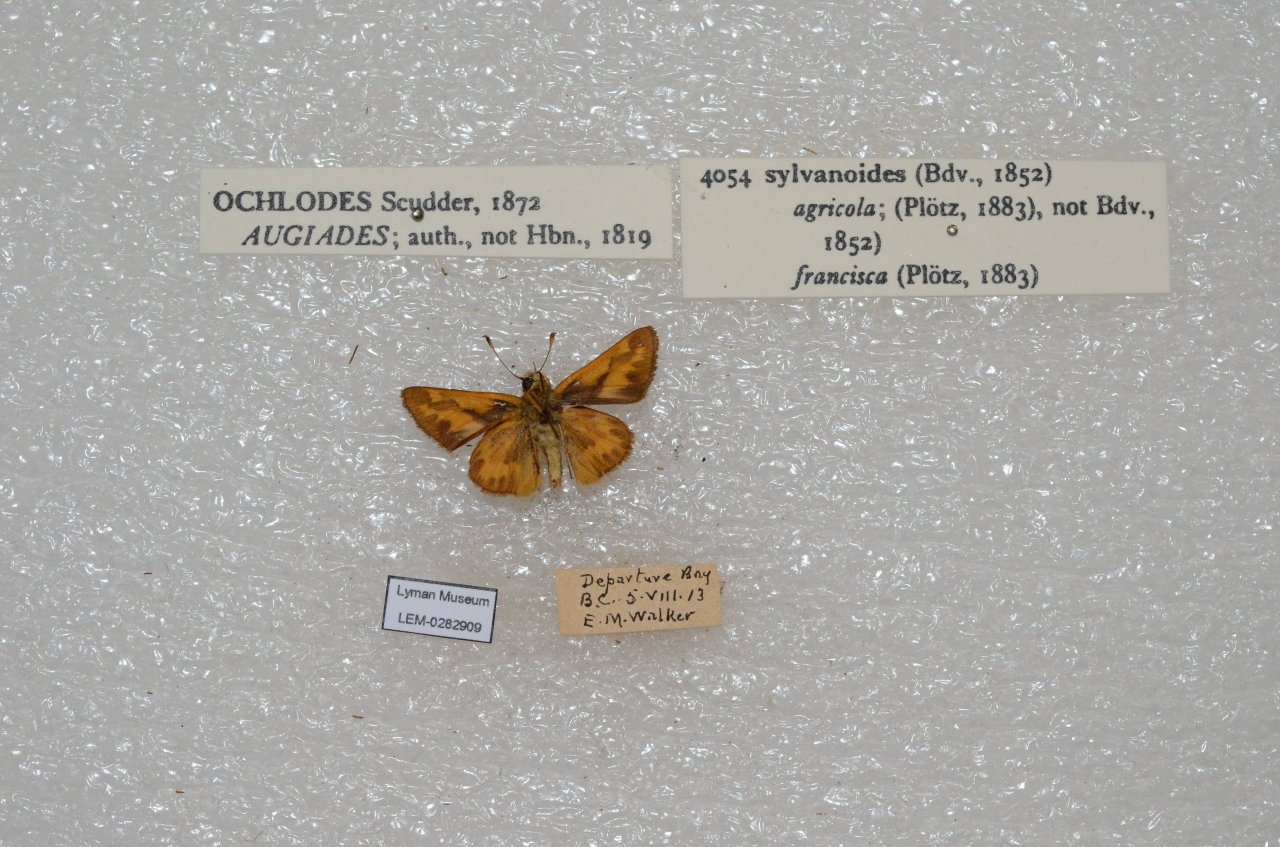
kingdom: Animalia
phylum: Arthropoda
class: Insecta
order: Lepidoptera
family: Hesperiidae
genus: Ochlodes
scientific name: Ochlodes sylvanoides
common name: Woodland Skipper
